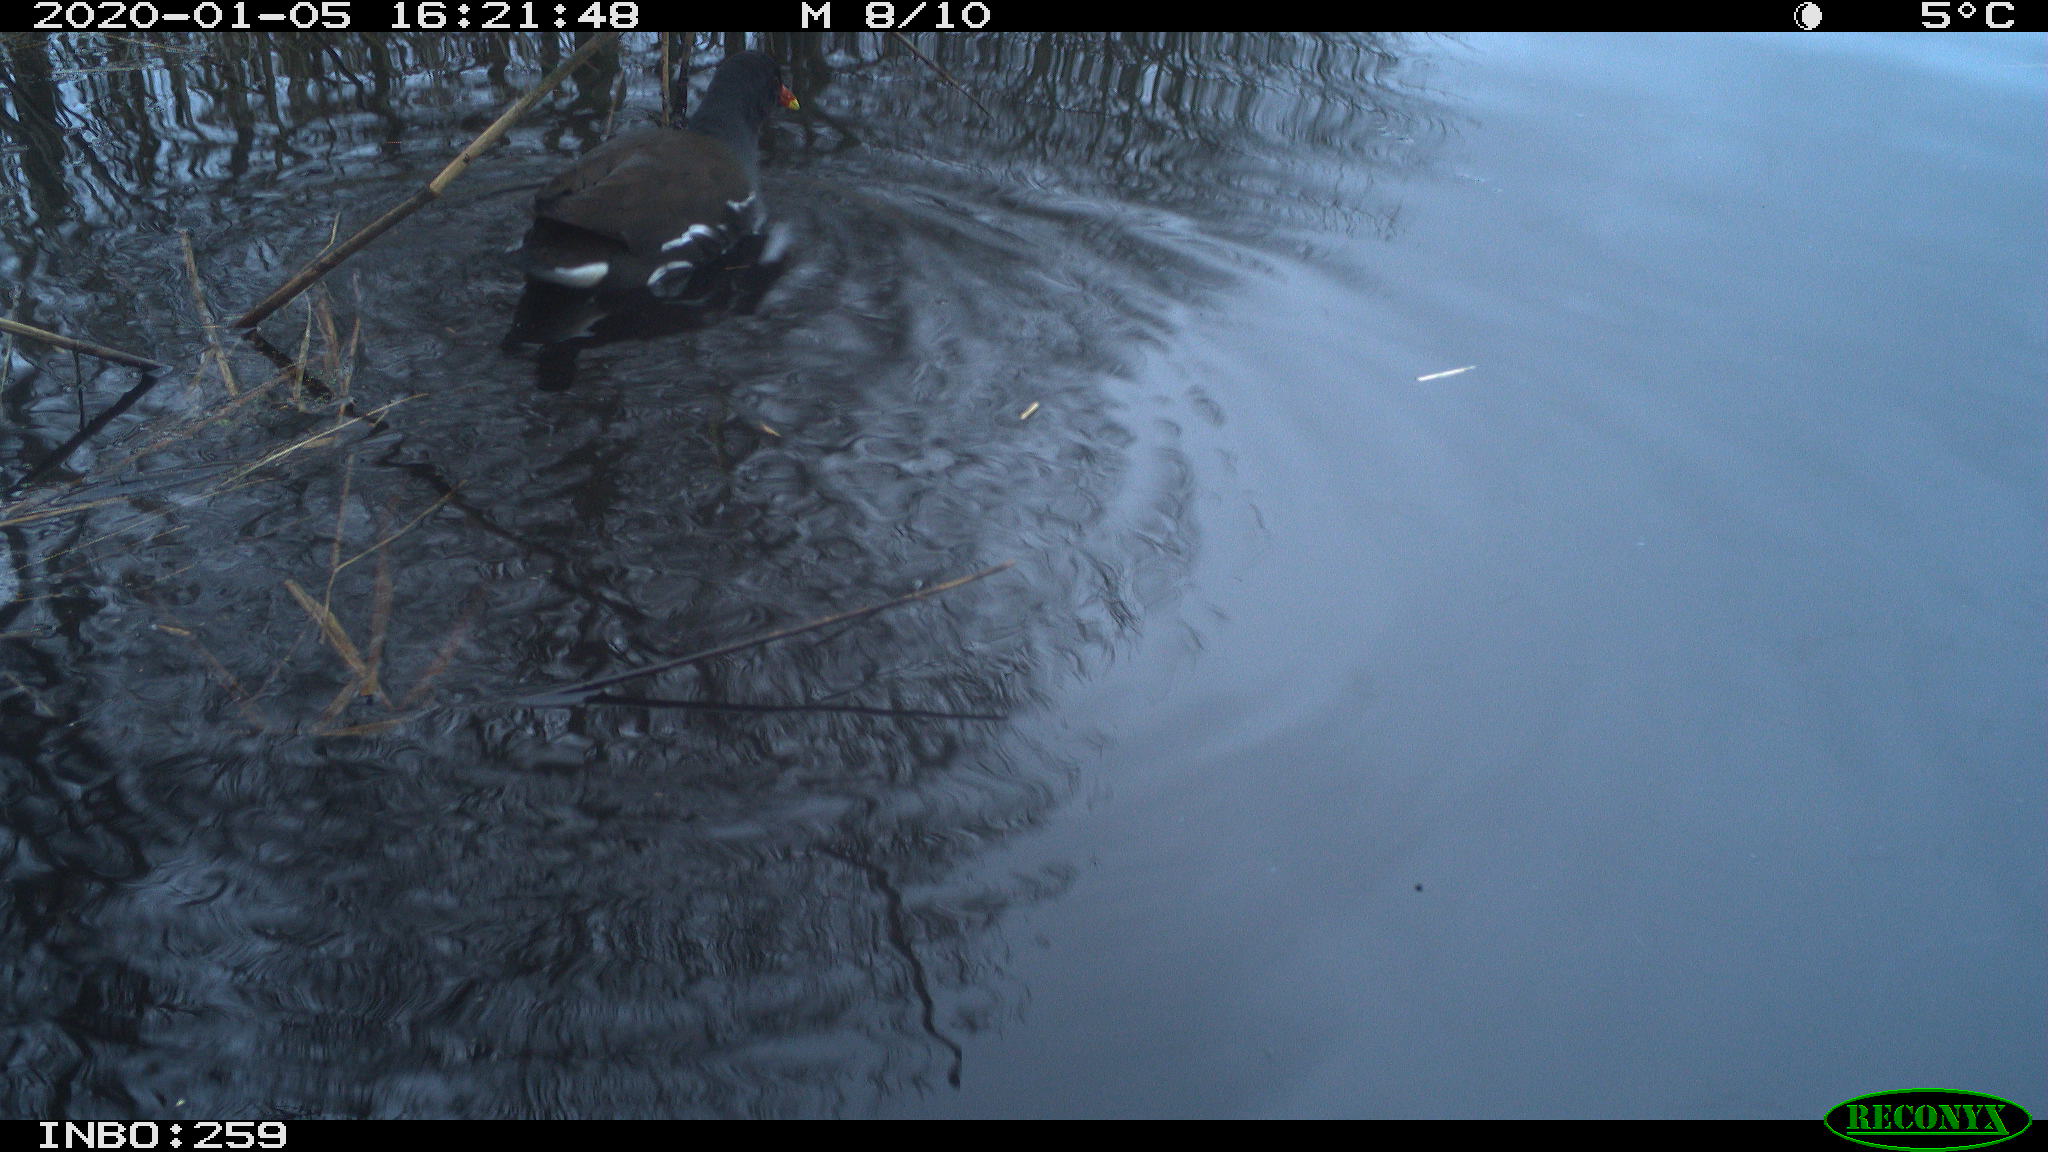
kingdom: Animalia
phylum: Chordata
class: Aves
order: Gruiformes
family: Rallidae
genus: Gallinula
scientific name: Gallinula chloropus
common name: Common moorhen
